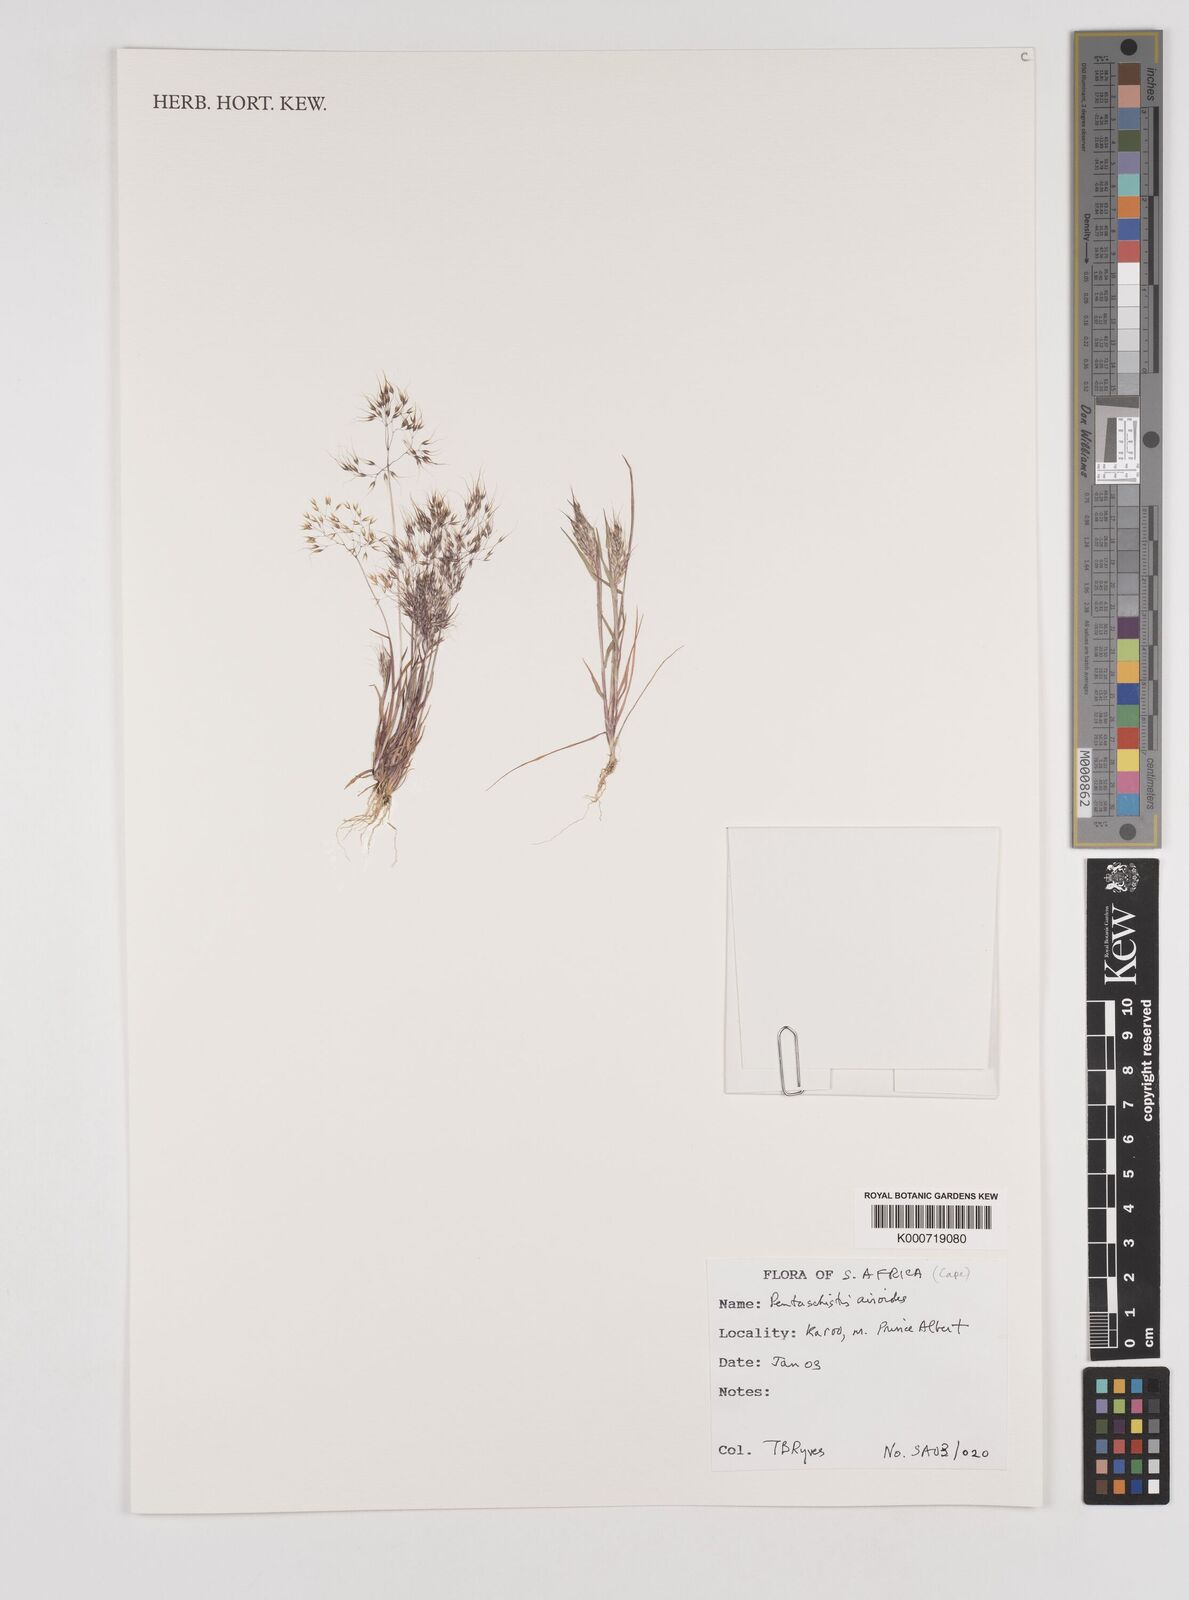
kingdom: Plantae
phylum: Tracheophyta
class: Liliopsida
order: Poales
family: Poaceae
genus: Pentameris
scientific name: Pentameris airoides
